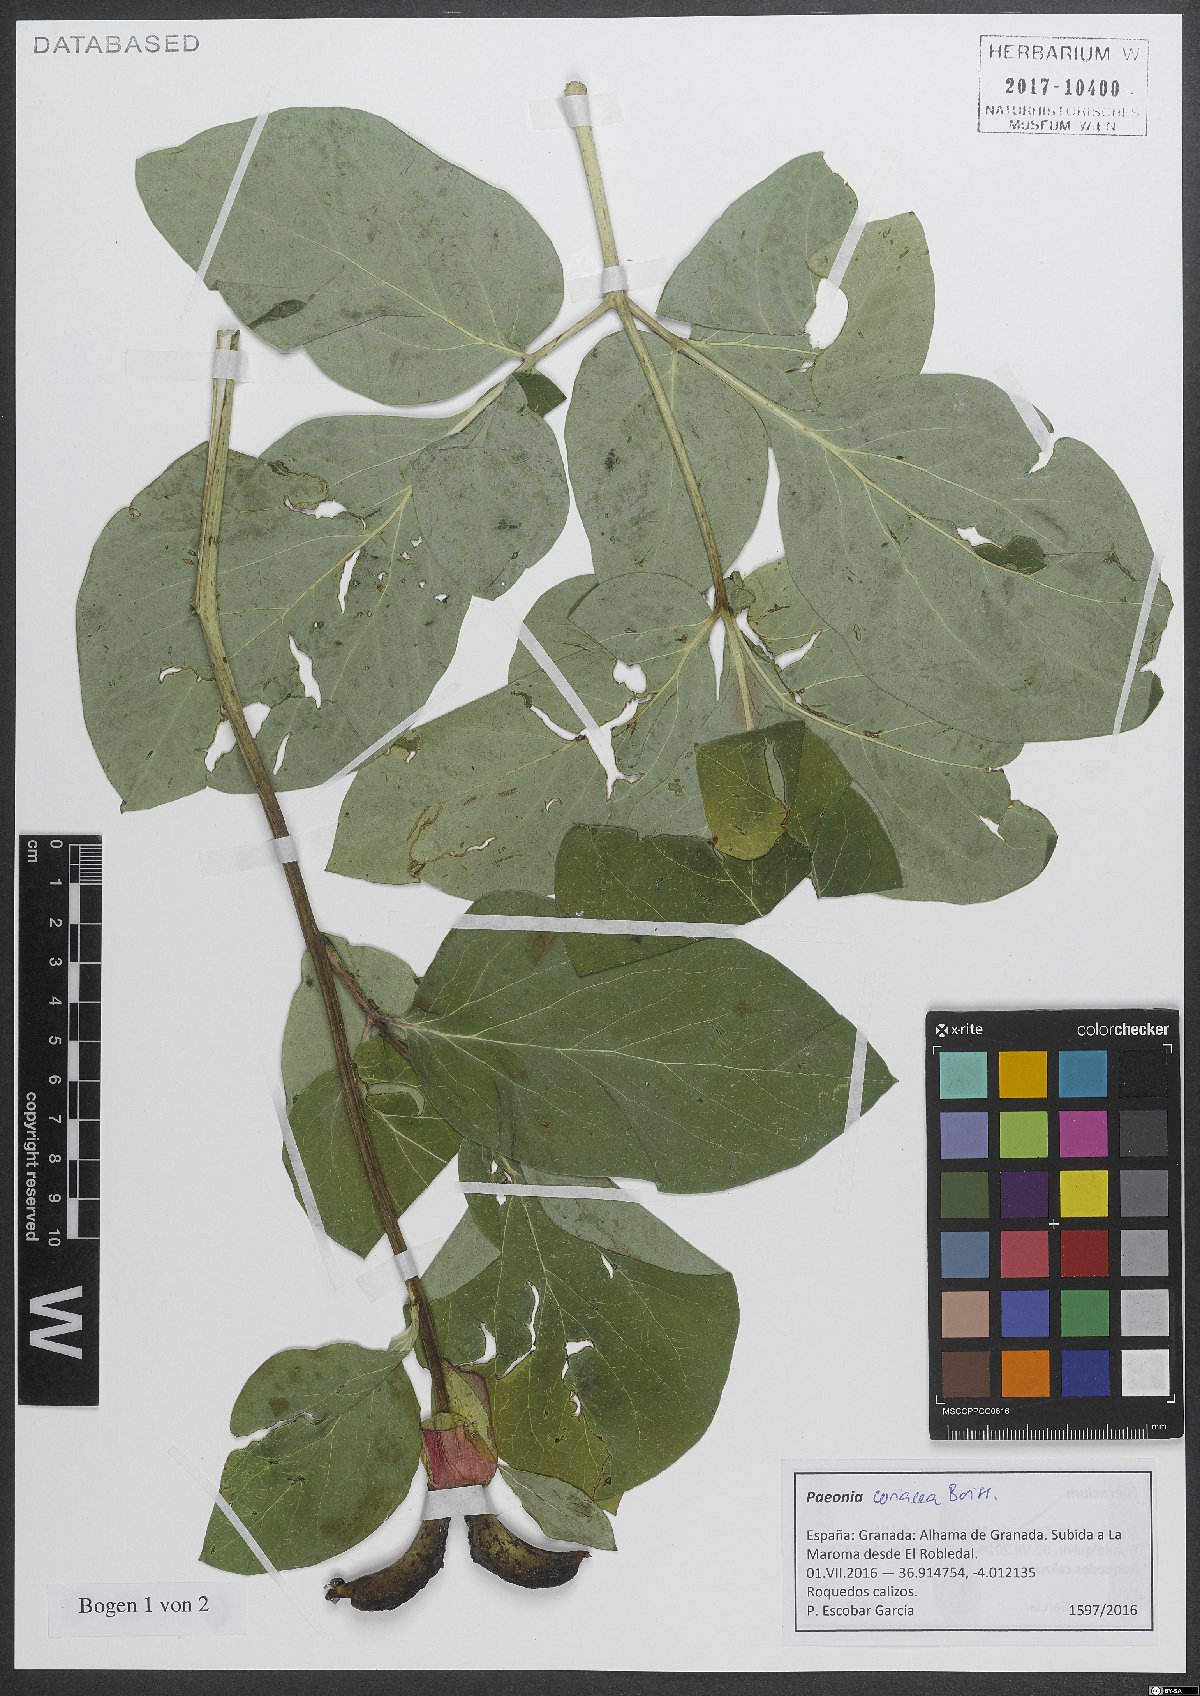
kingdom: Plantae
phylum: Tracheophyta
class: Magnoliopsida
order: Saxifragales
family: Paeoniaceae
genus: Paeonia
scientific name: Paeonia coriacea
